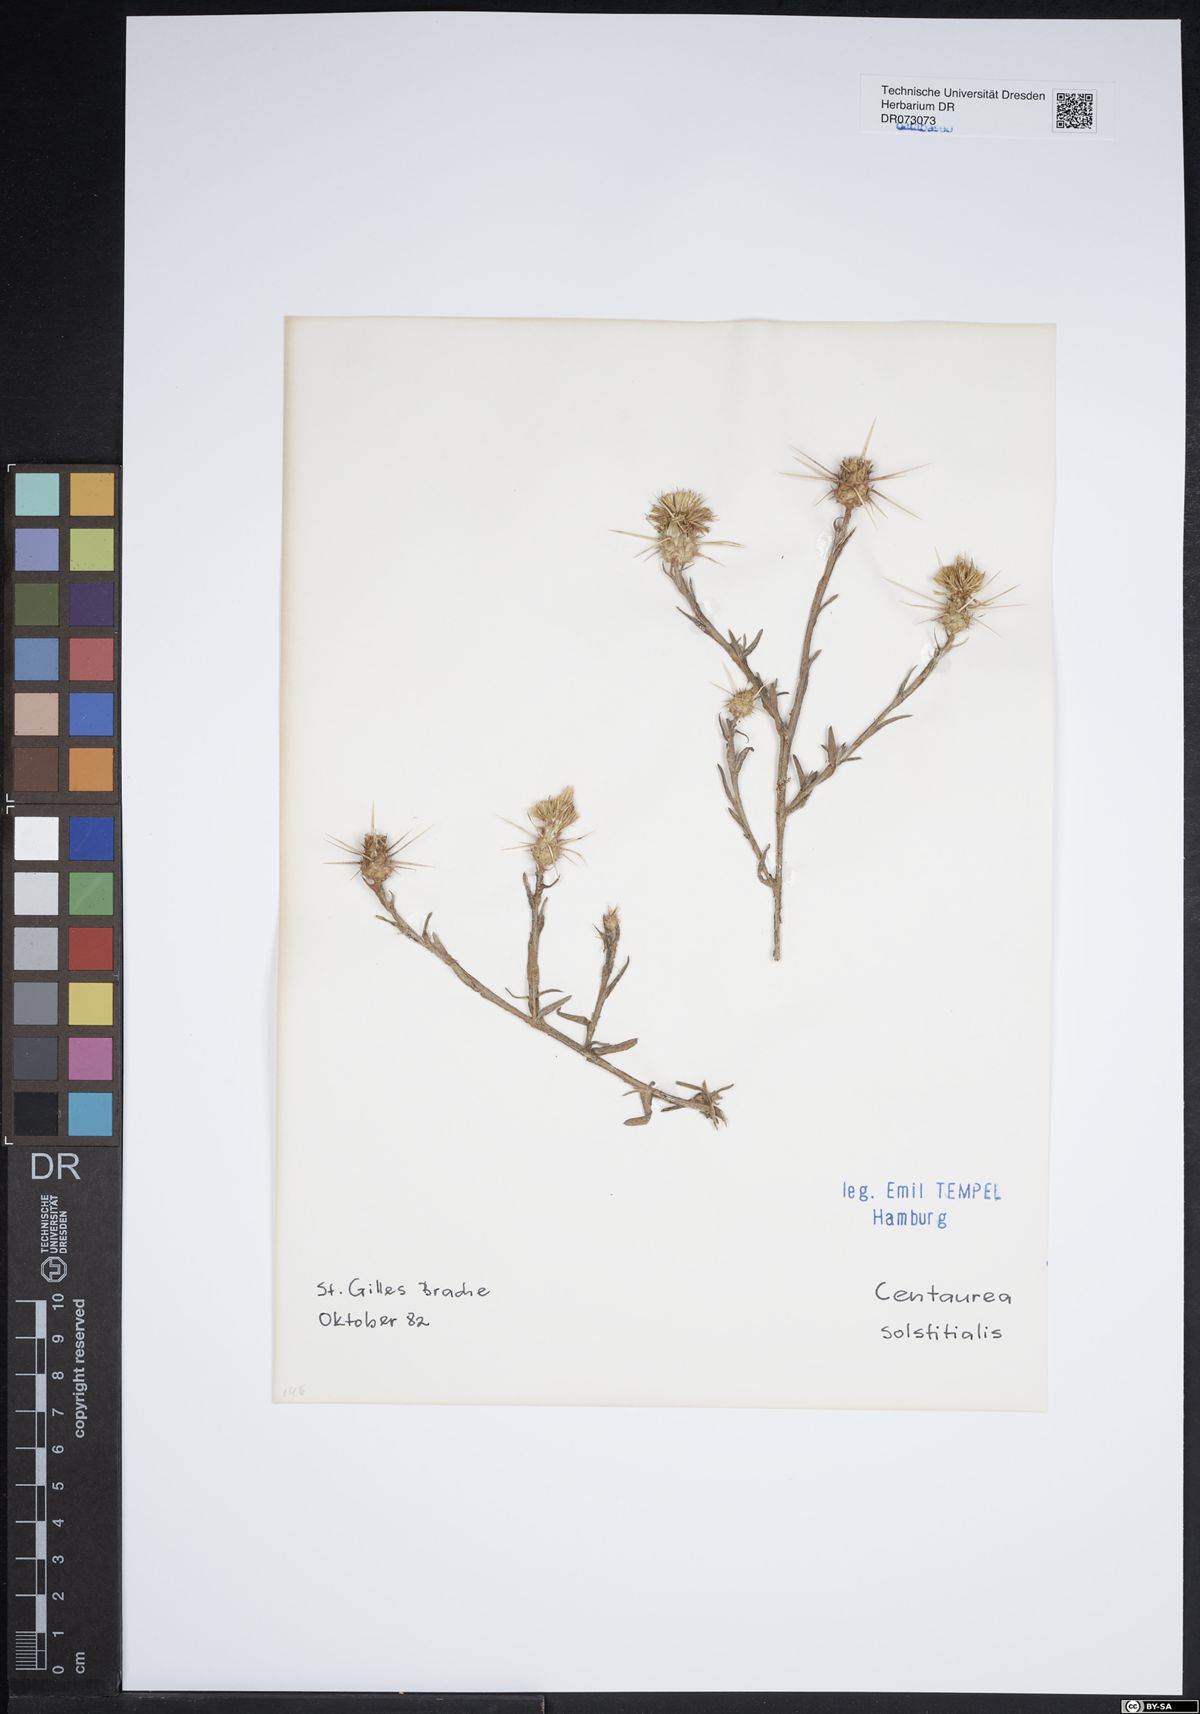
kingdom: Plantae
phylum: Tracheophyta
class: Magnoliopsida
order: Asterales
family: Asteraceae
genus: Centaurea
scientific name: Centaurea salonitana
